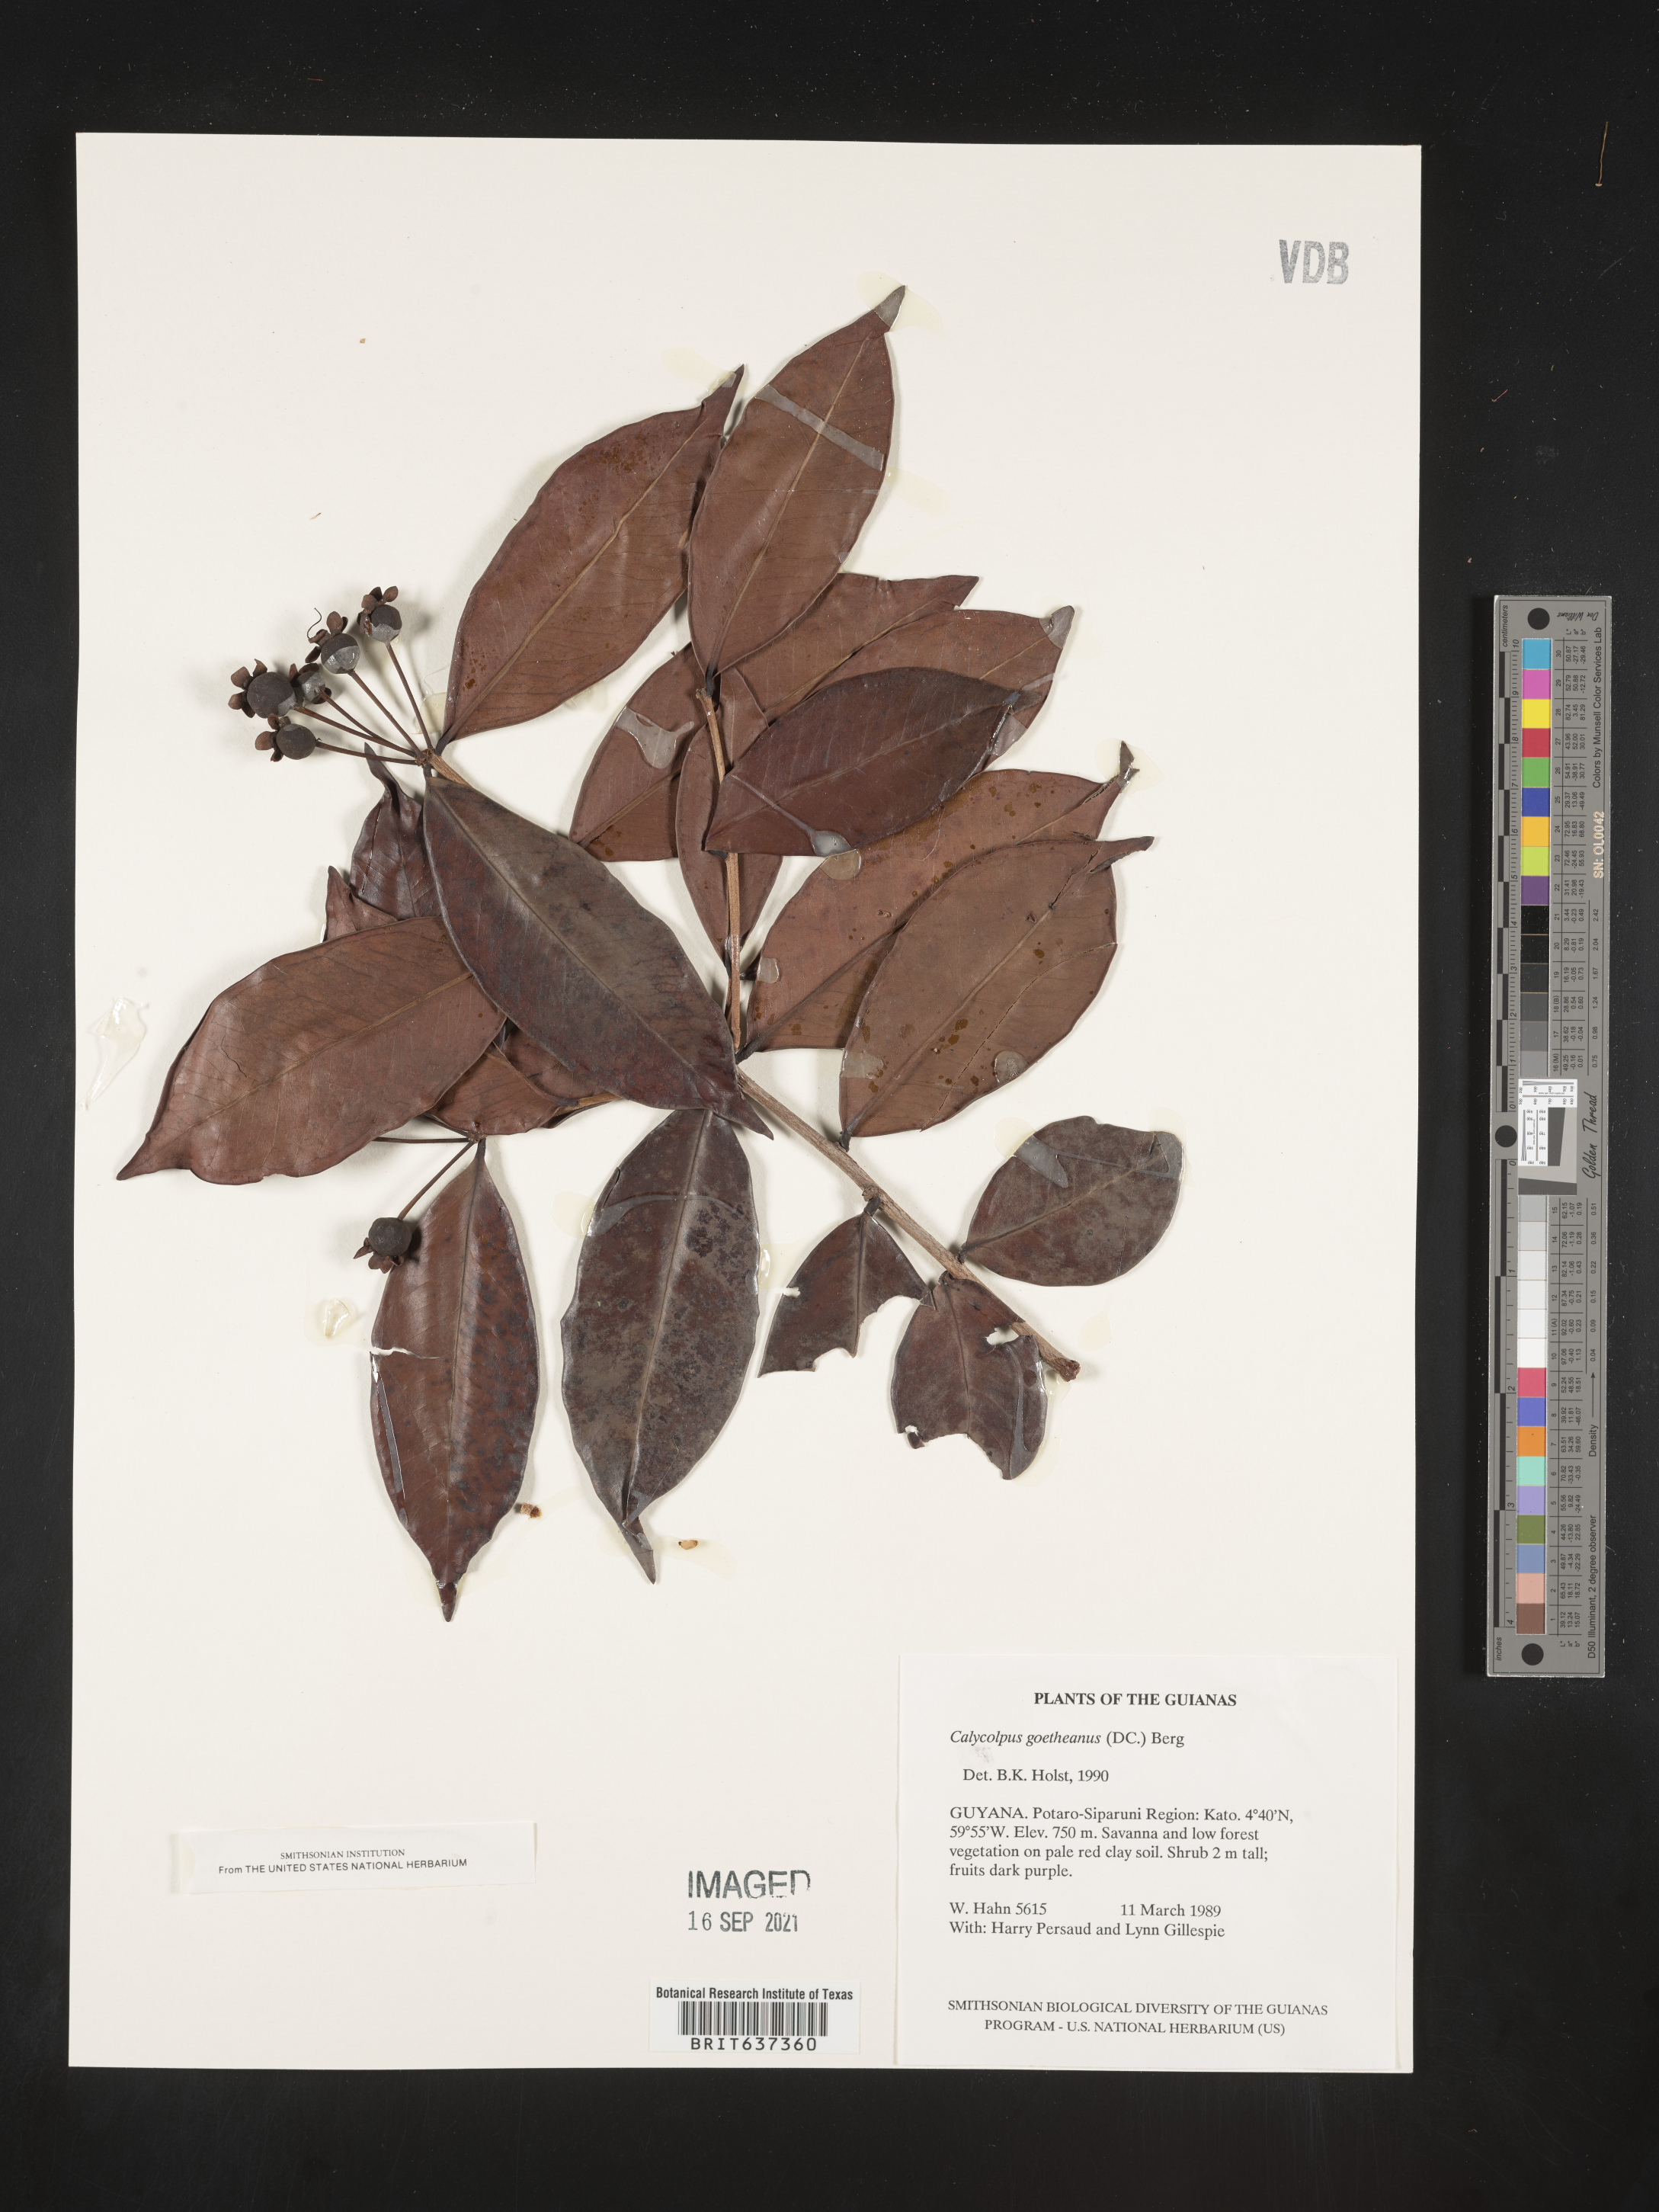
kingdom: Plantae
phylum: Tracheophyta
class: Magnoliopsida
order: Myrtales
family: Myrtaceae
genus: Calycolpus
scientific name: Calycolpus
